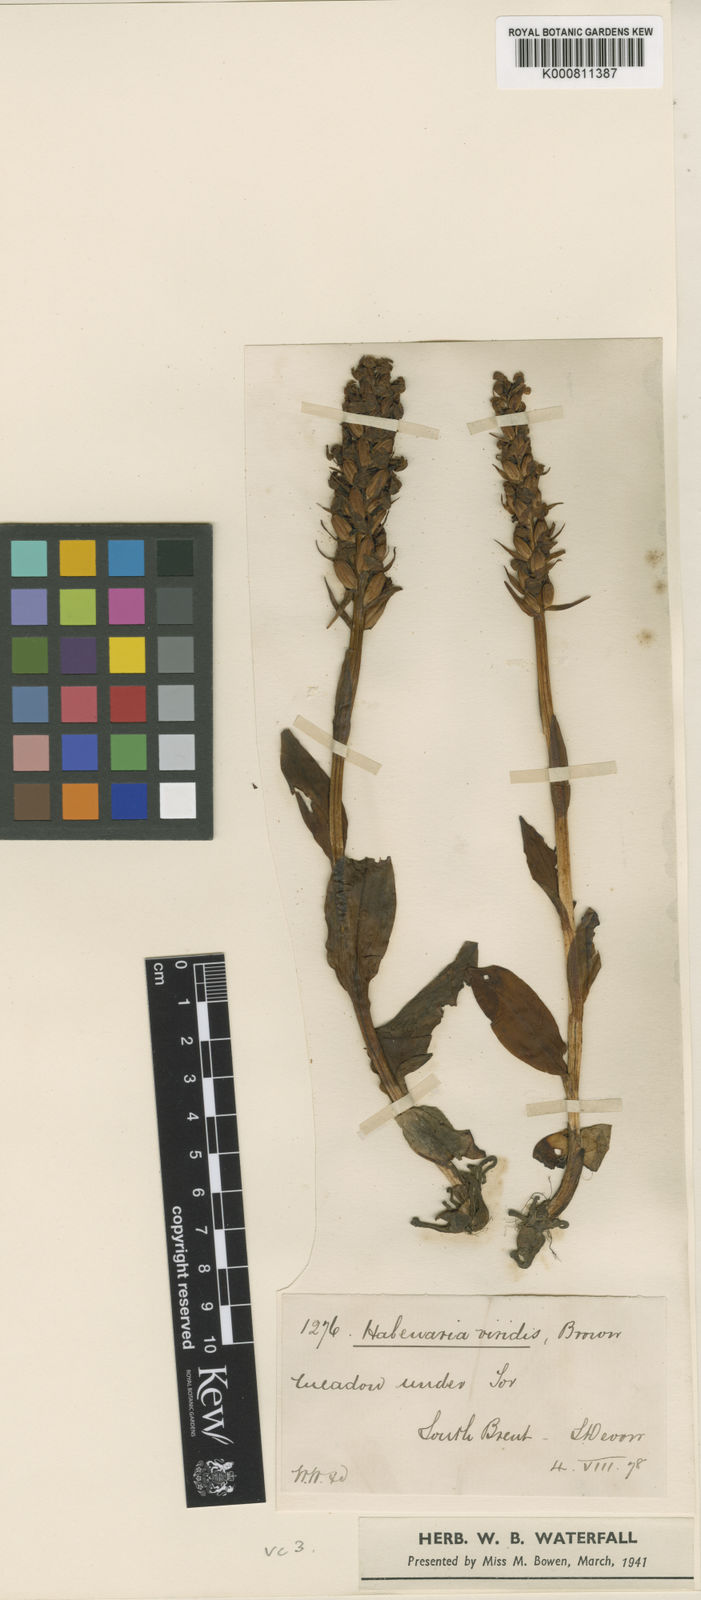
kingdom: Plantae
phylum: Tracheophyta
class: Liliopsida
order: Asparagales
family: Orchidaceae
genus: Dactylorhiza
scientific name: Dactylorhiza viridis
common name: Longbract frog orchid
